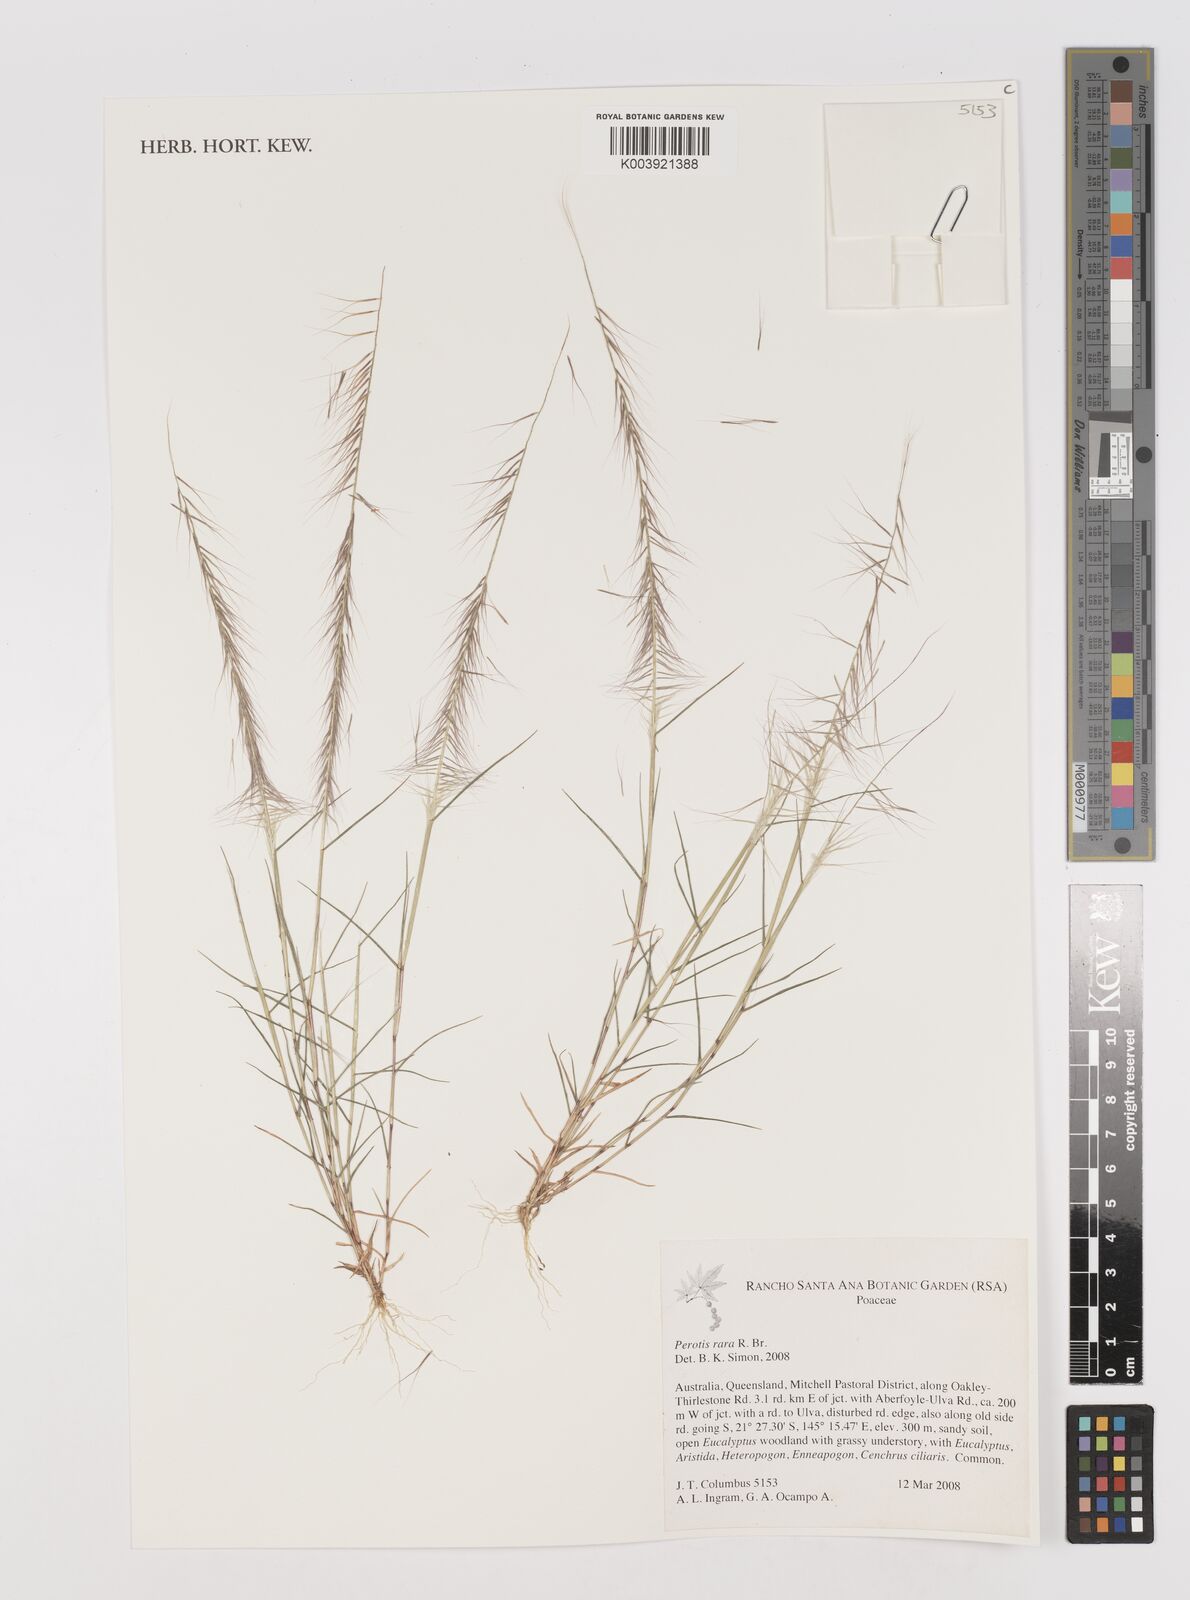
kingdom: Plantae
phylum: Tracheophyta
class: Liliopsida
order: Poales
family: Poaceae
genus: Perotis
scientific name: Perotis rara
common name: Comet grass
